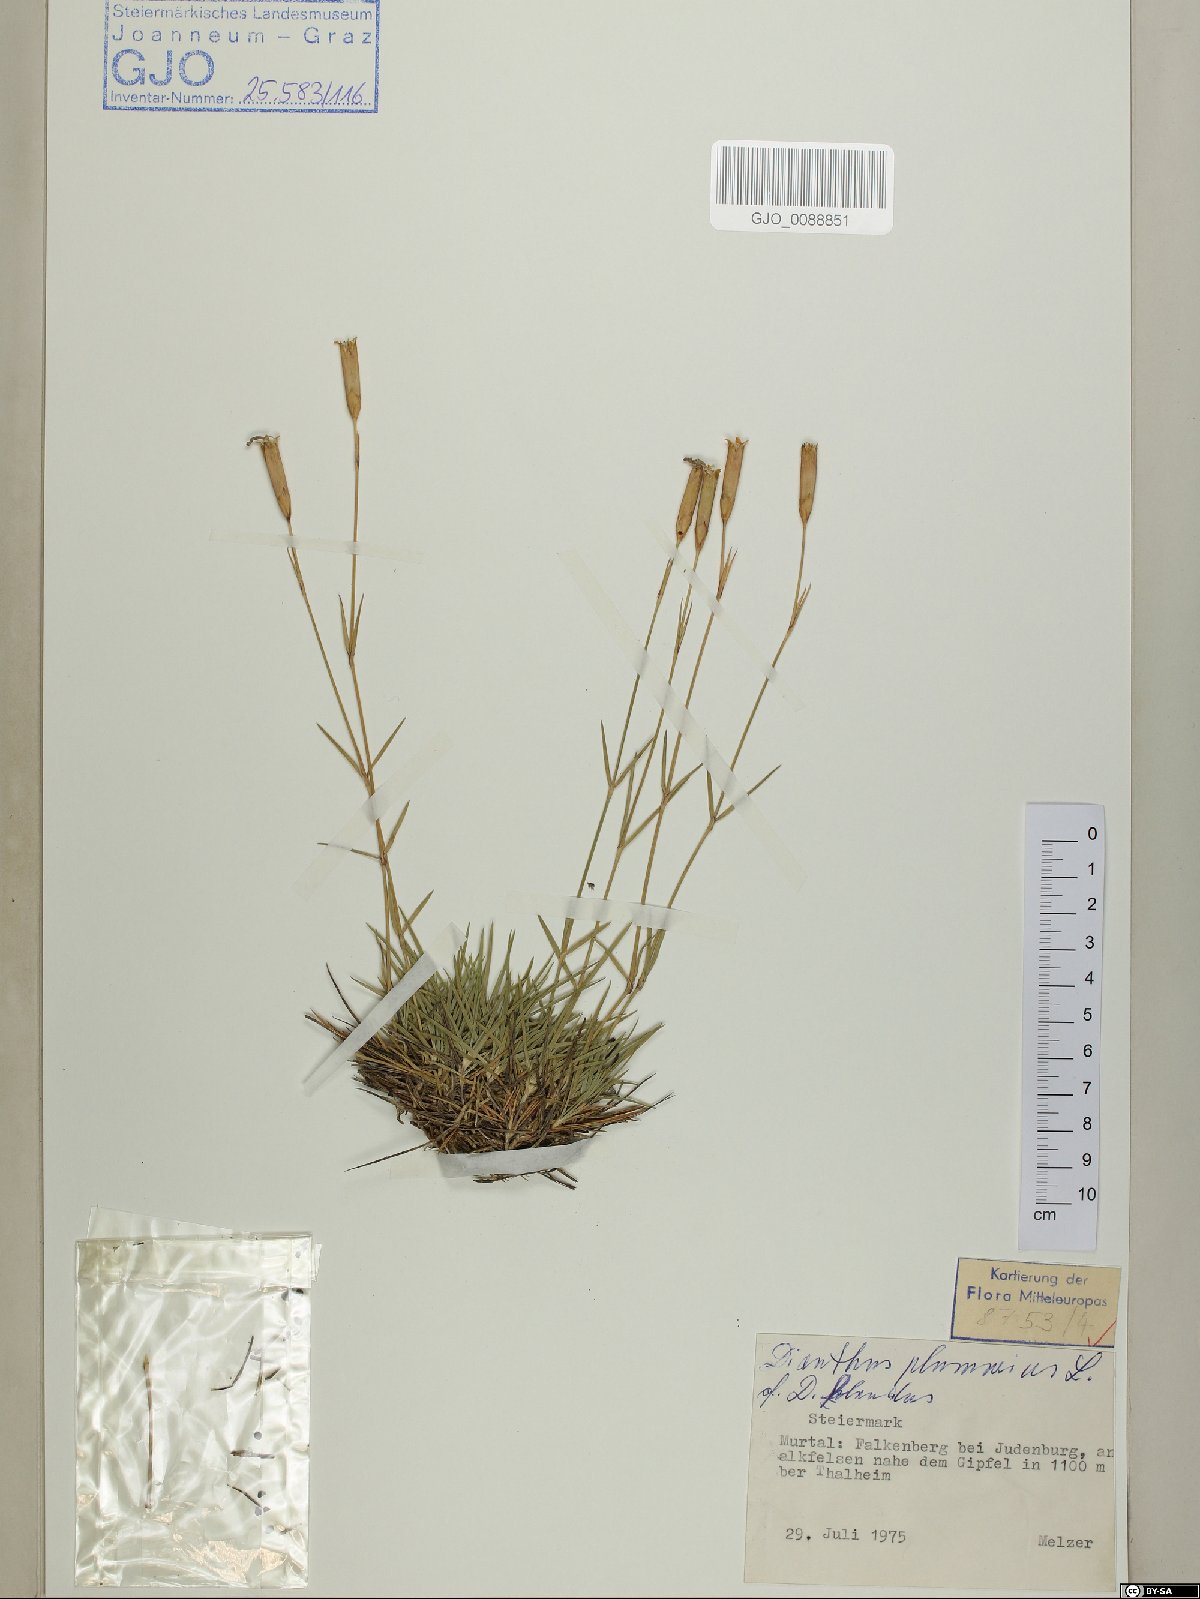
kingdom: Plantae
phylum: Tracheophyta
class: Magnoliopsida
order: Caryophyllales
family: Caryophyllaceae
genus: Dianthus
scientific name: Dianthus plumarius
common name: Pink
